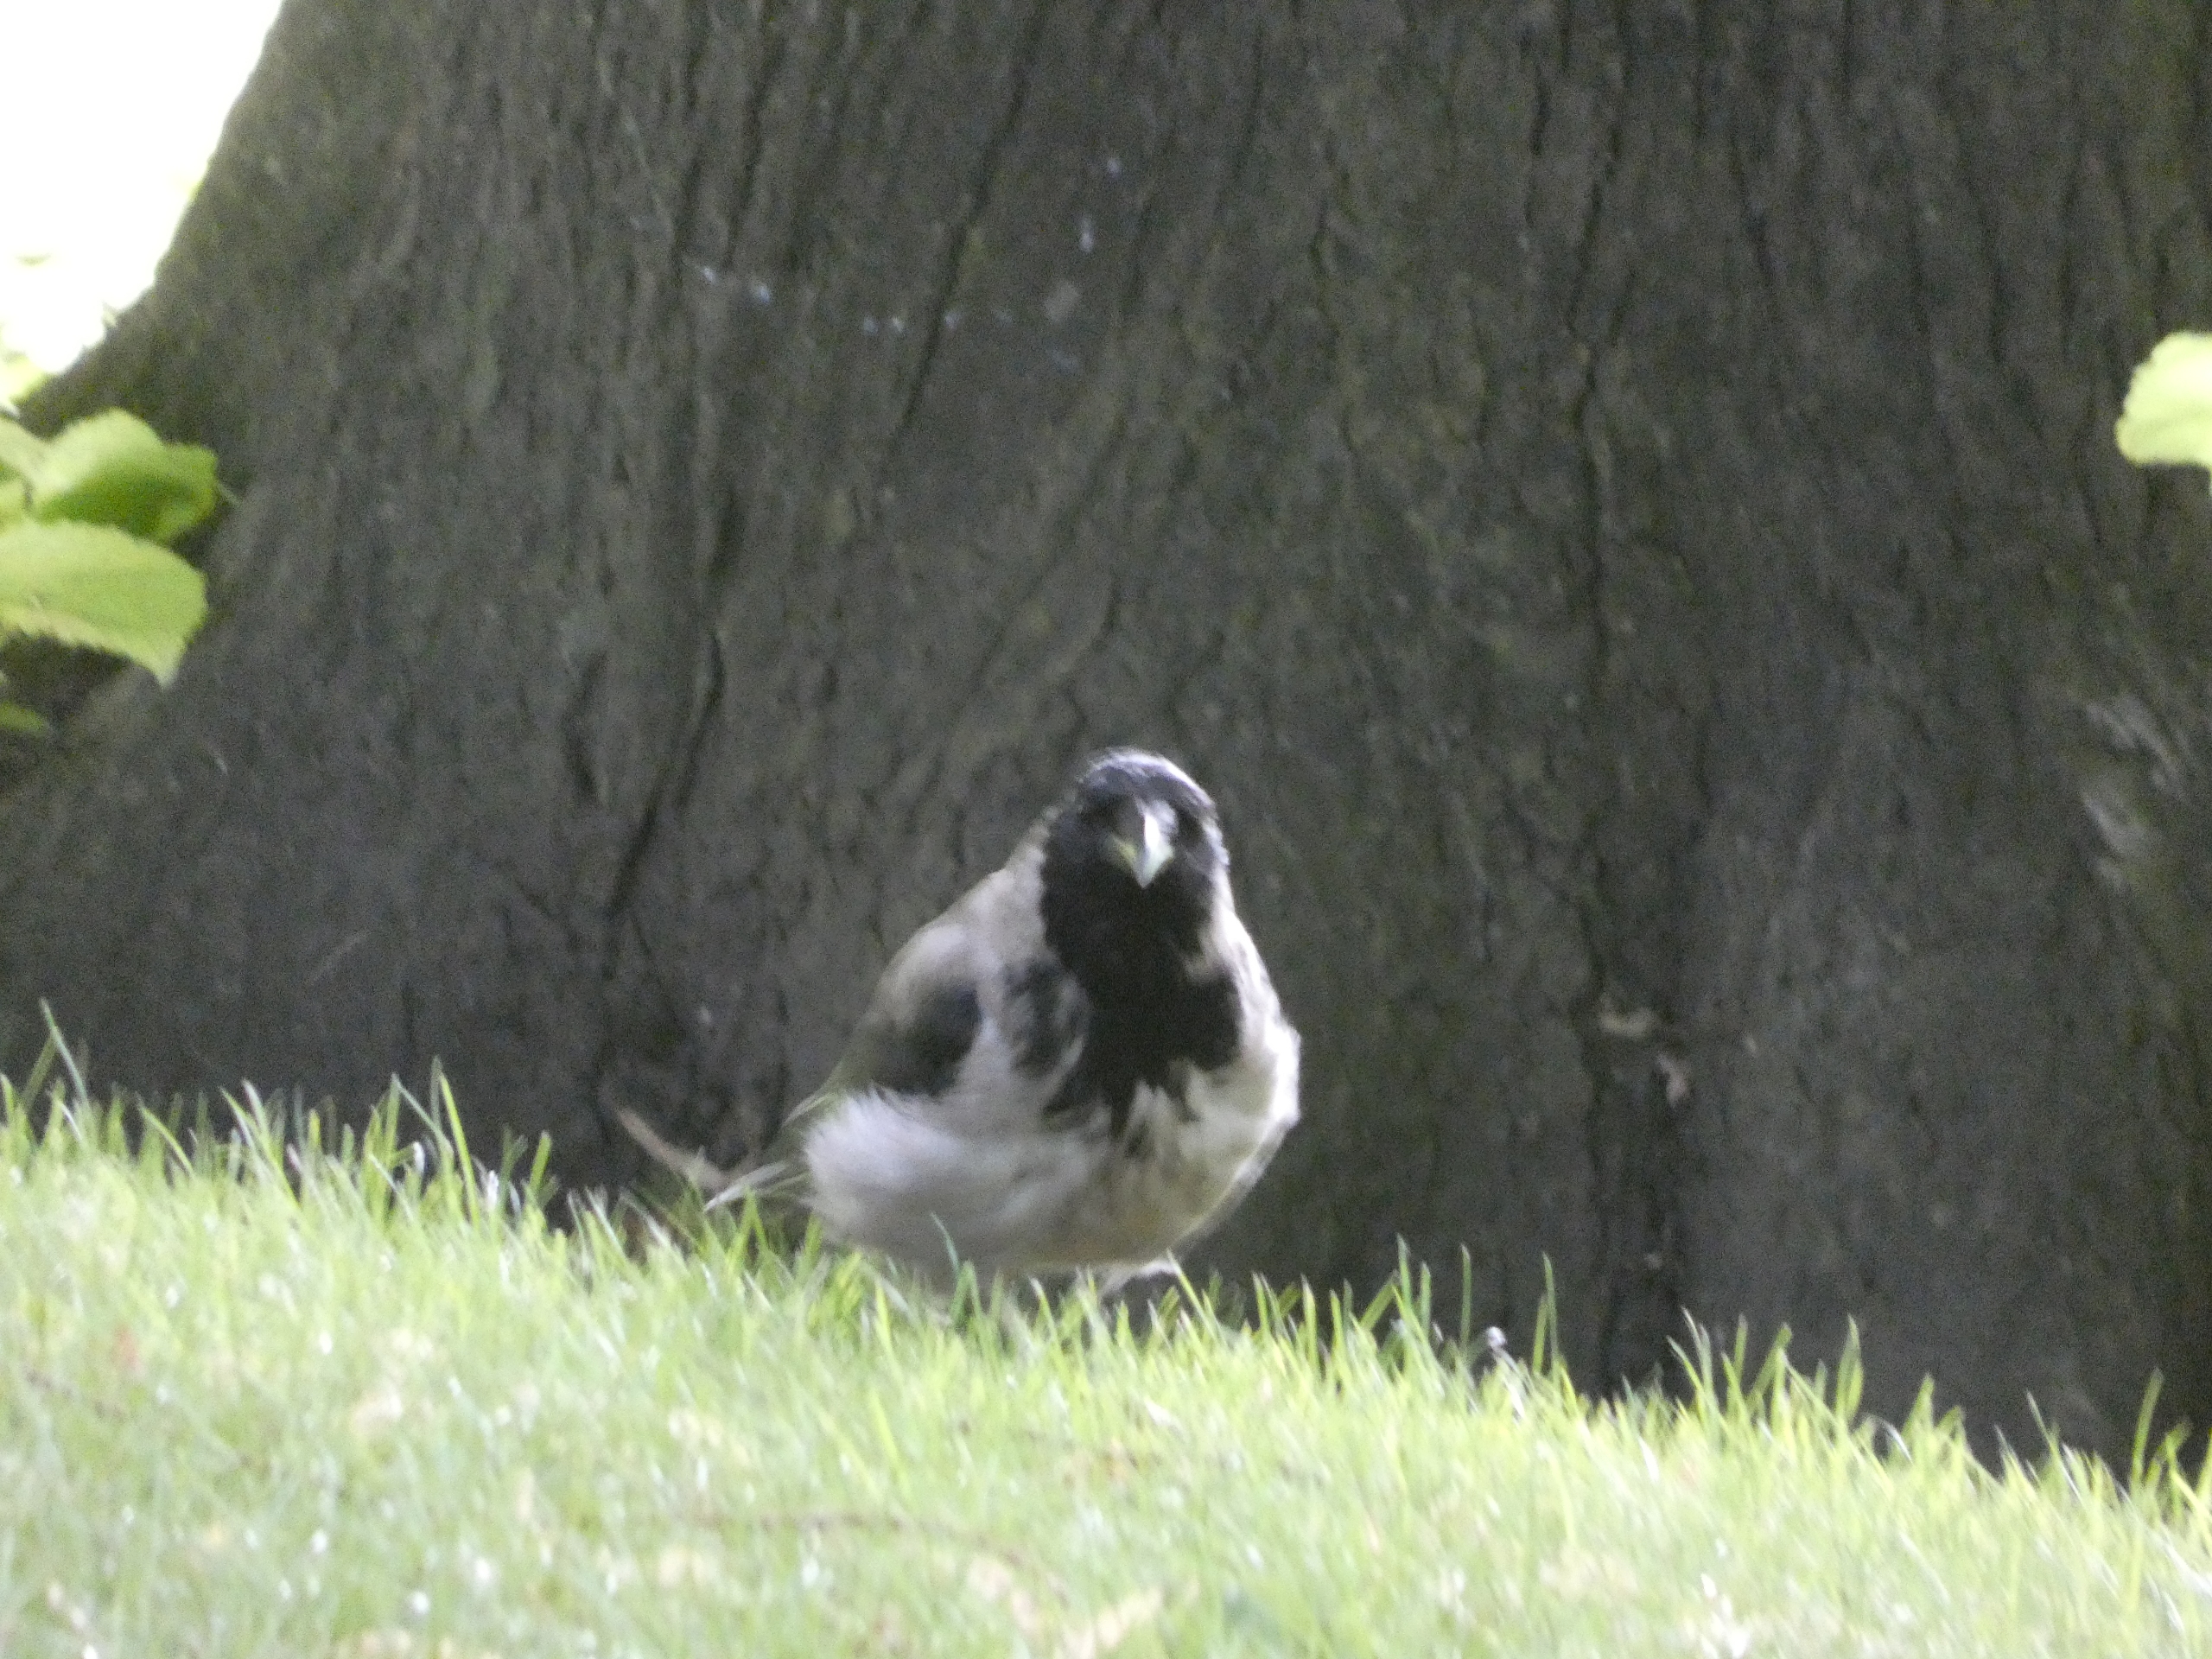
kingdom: Animalia
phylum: Chordata
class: Aves
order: Passeriformes
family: Corvidae
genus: Corvus
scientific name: Corvus cornix
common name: Gråkrage
